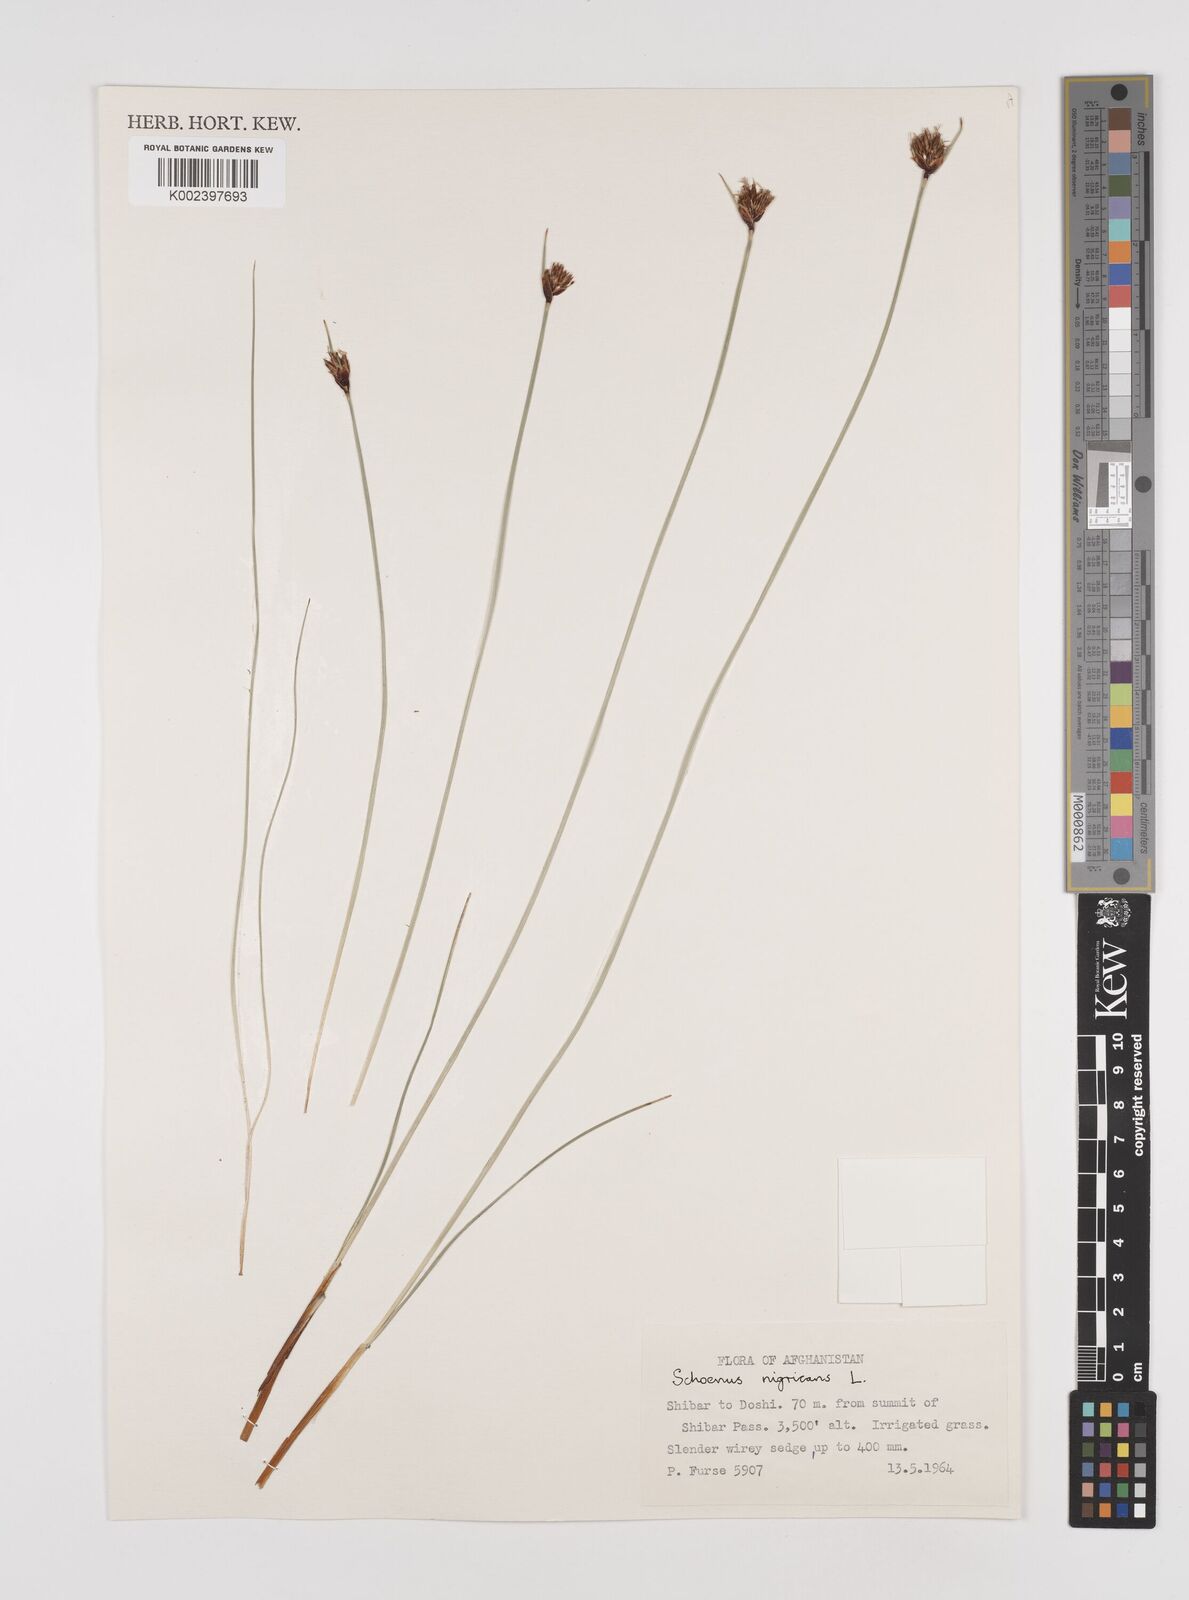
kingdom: Plantae
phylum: Tracheophyta
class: Liliopsida
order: Poales
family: Cyperaceae
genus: Schoenus
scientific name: Schoenus nigricans
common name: Black bog-rush
